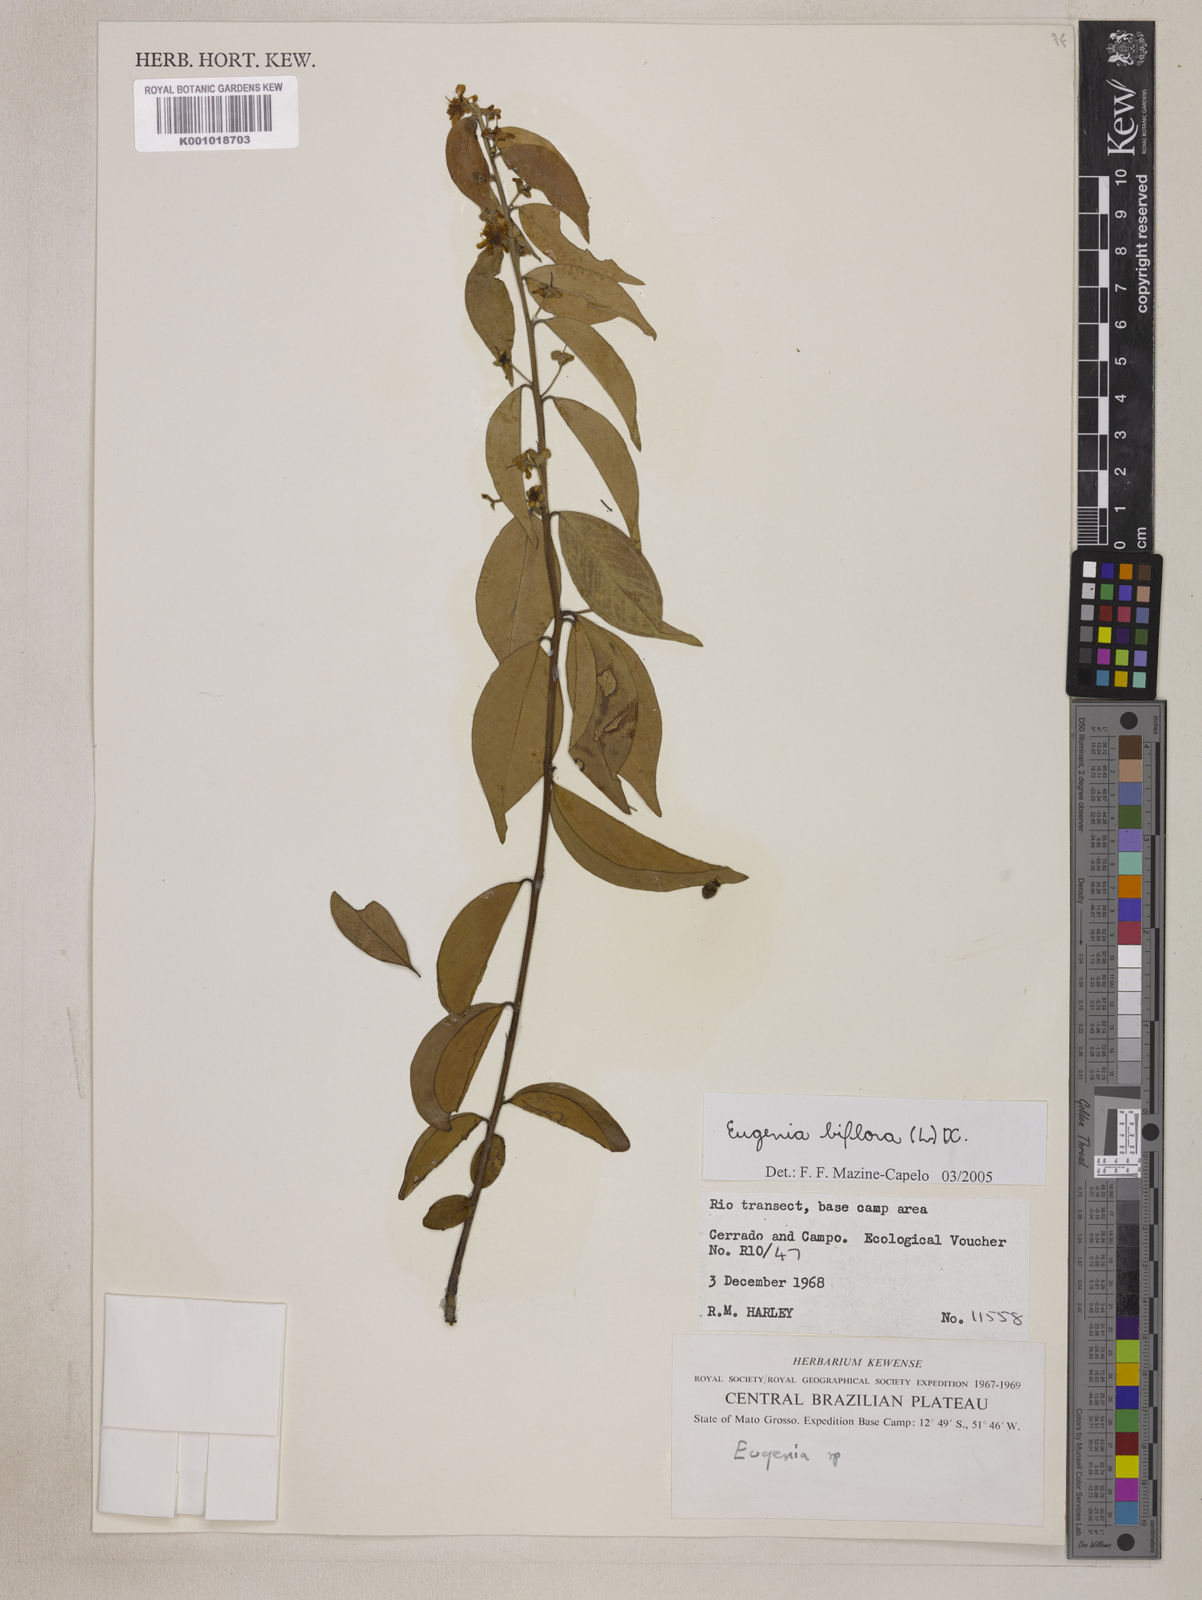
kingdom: Plantae
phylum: Tracheophyta
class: Magnoliopsida
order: Myrtales
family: Myrtaceae
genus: Eugenia
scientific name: Eugenia biflora
